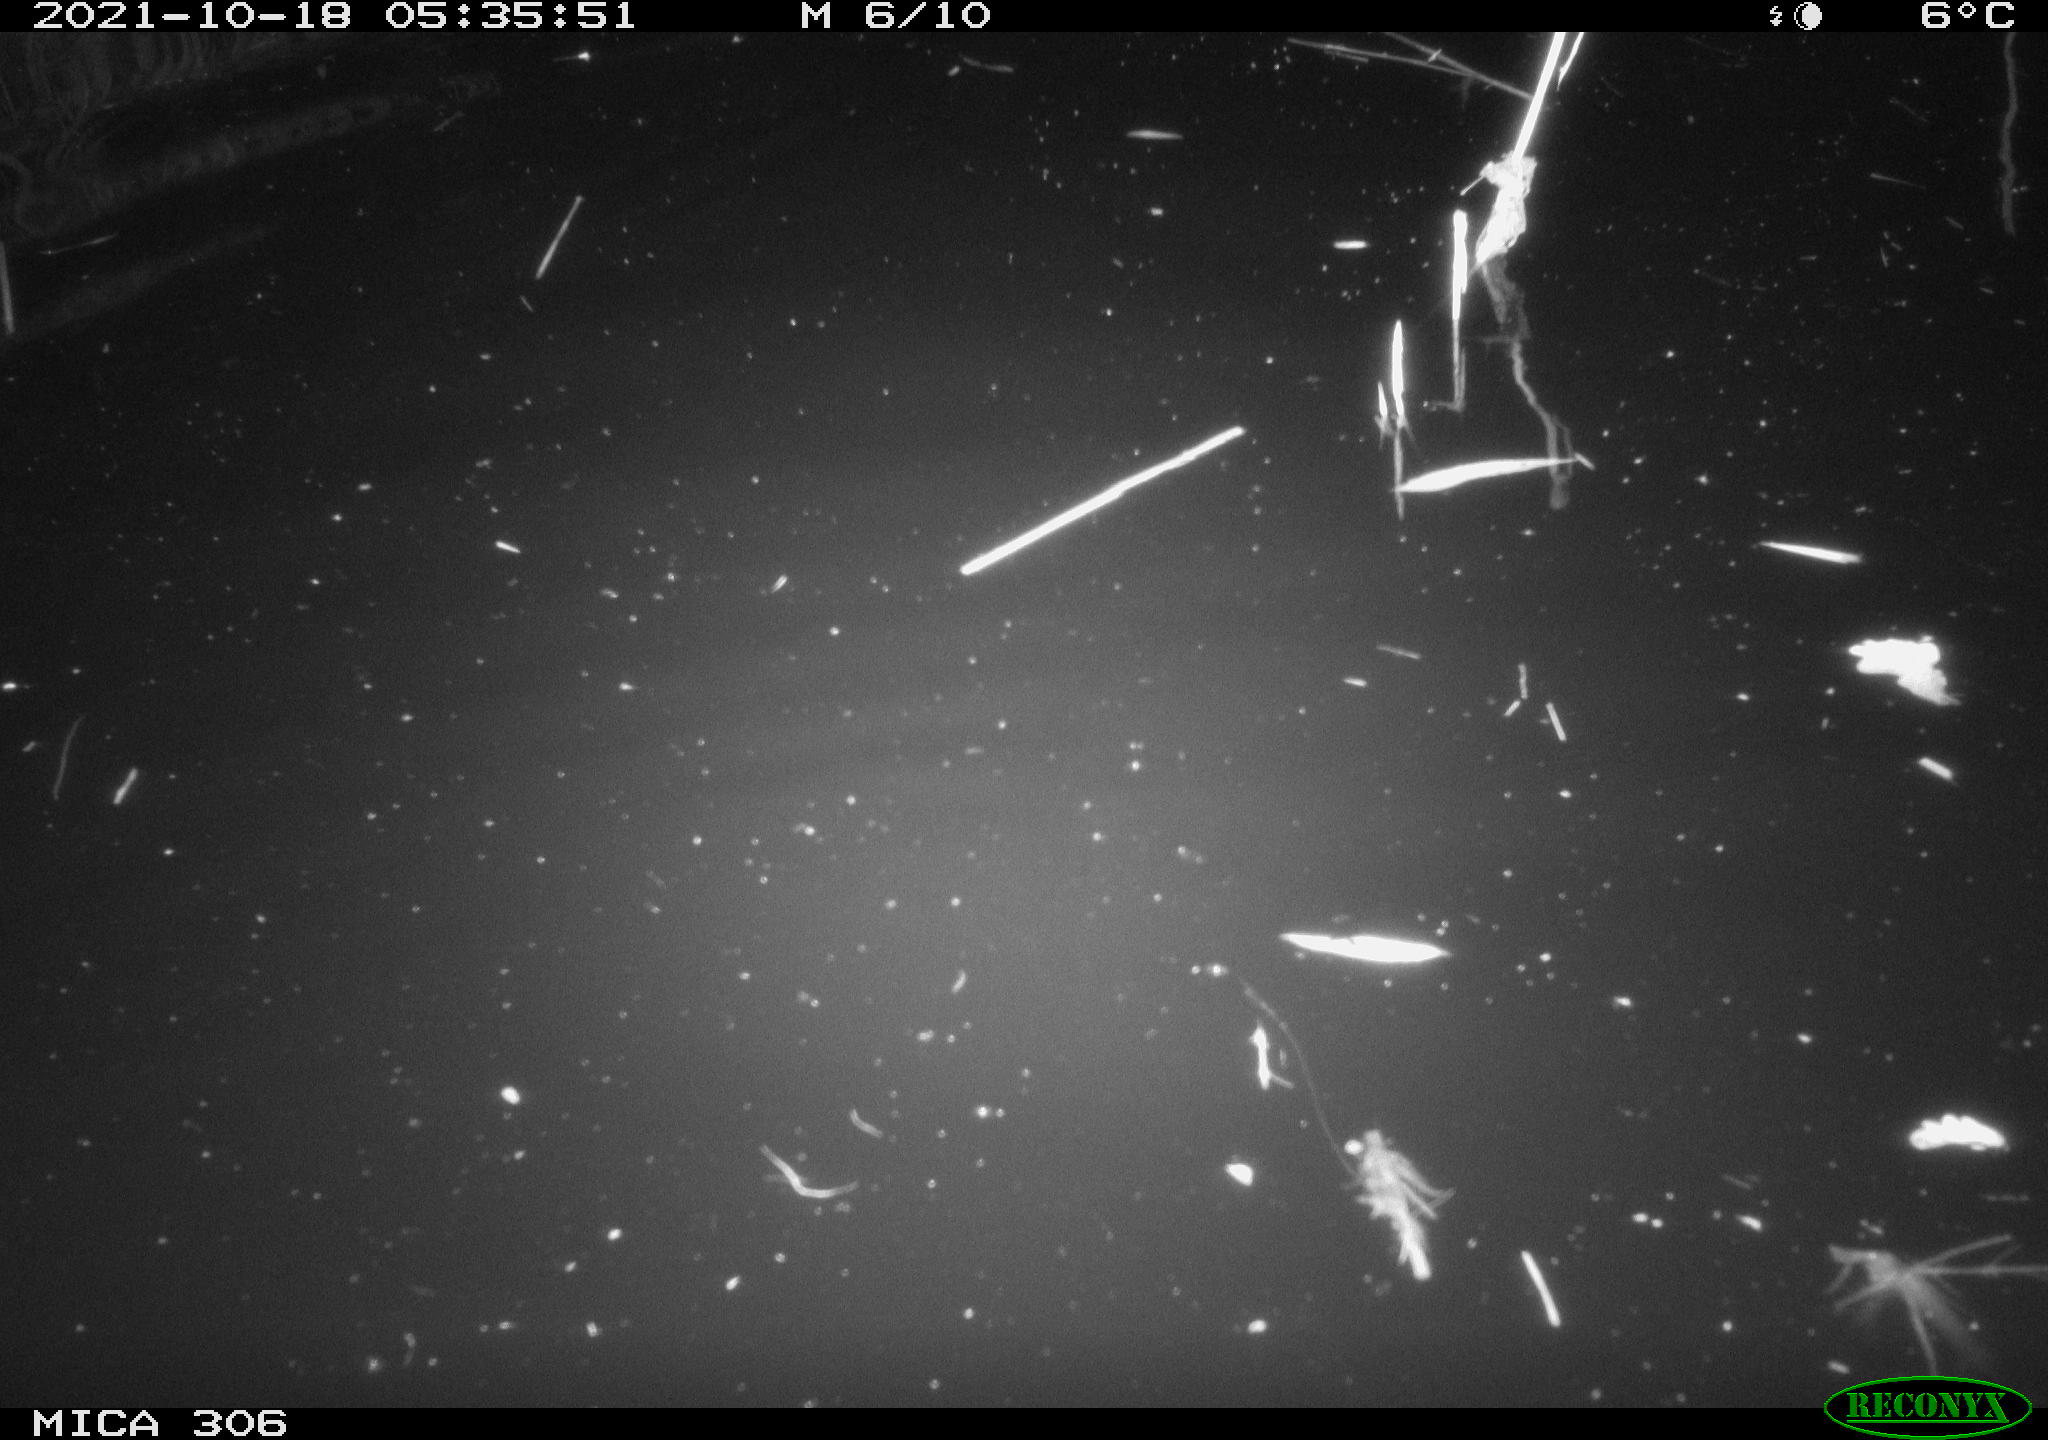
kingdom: Animalia
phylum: Chordata
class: Mammalia
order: Rodentia
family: Cricetidae
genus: Ondatra
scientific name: Ondatra zibethicus
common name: Muskrat
